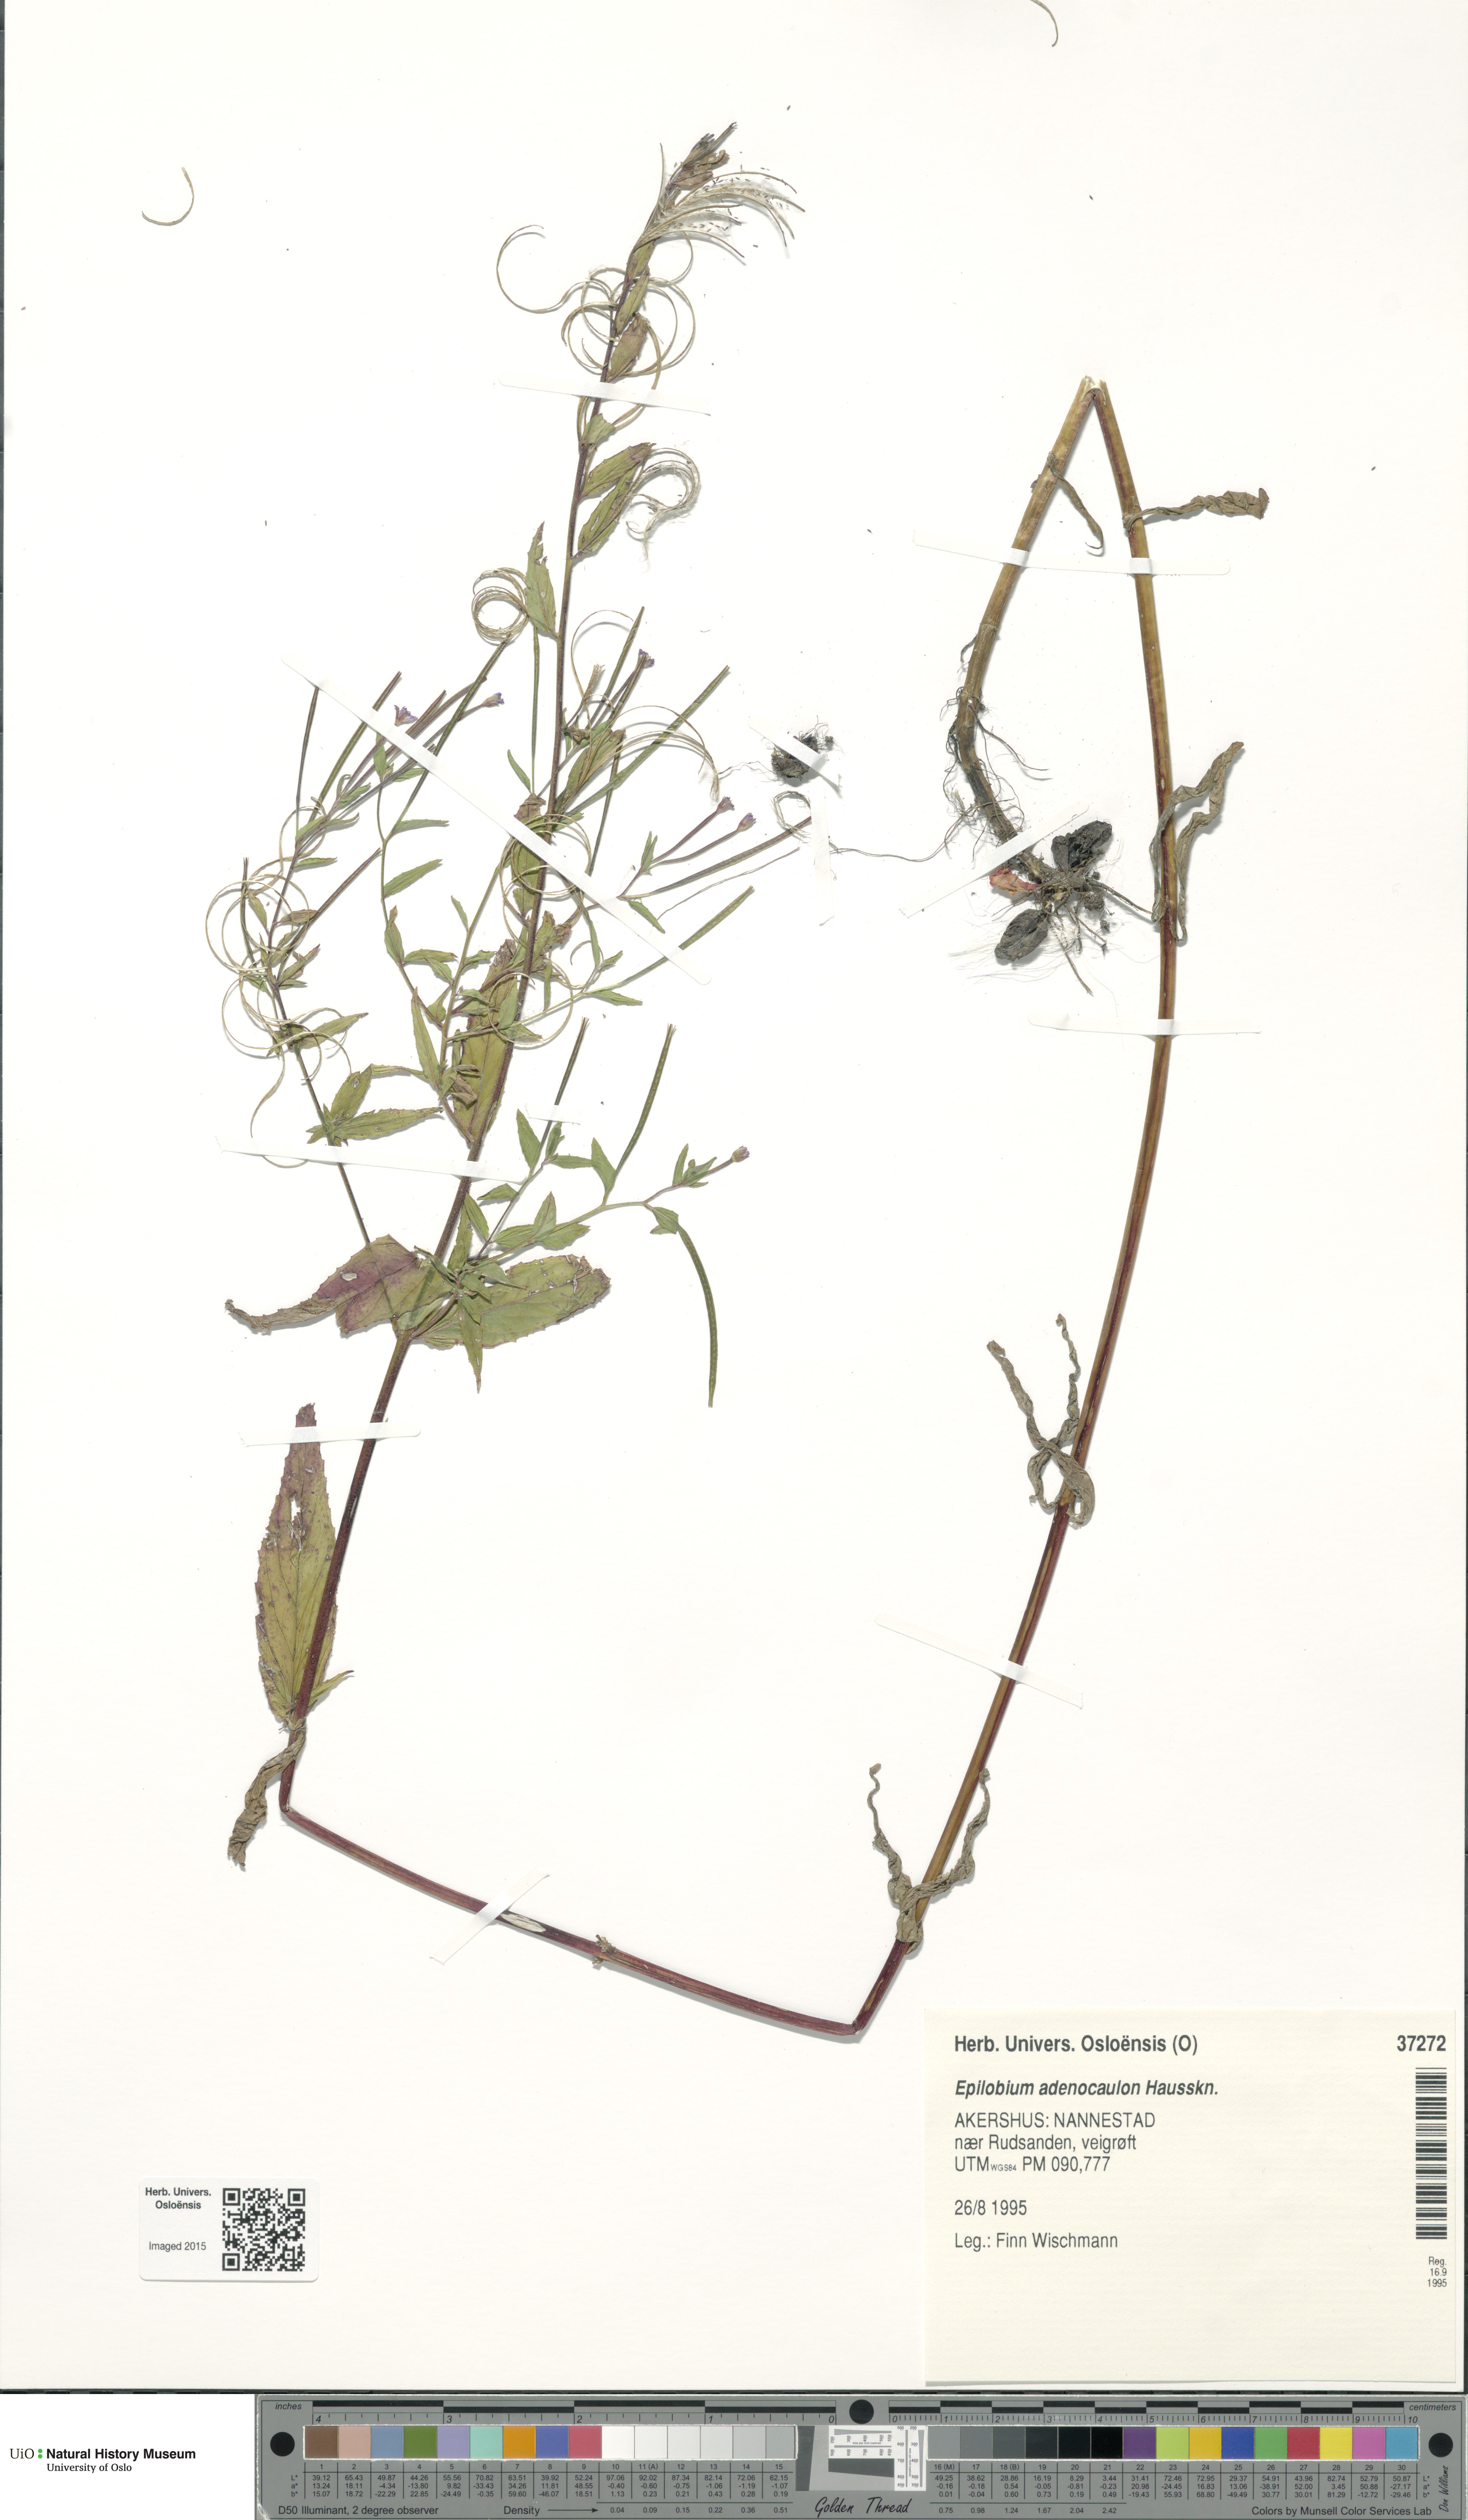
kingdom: Plantae
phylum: Tracheophyta
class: Magnoliopsida
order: Myrtales
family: Onagraceae
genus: Epilobium
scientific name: Epilobium ciliatum
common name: American willowherb
